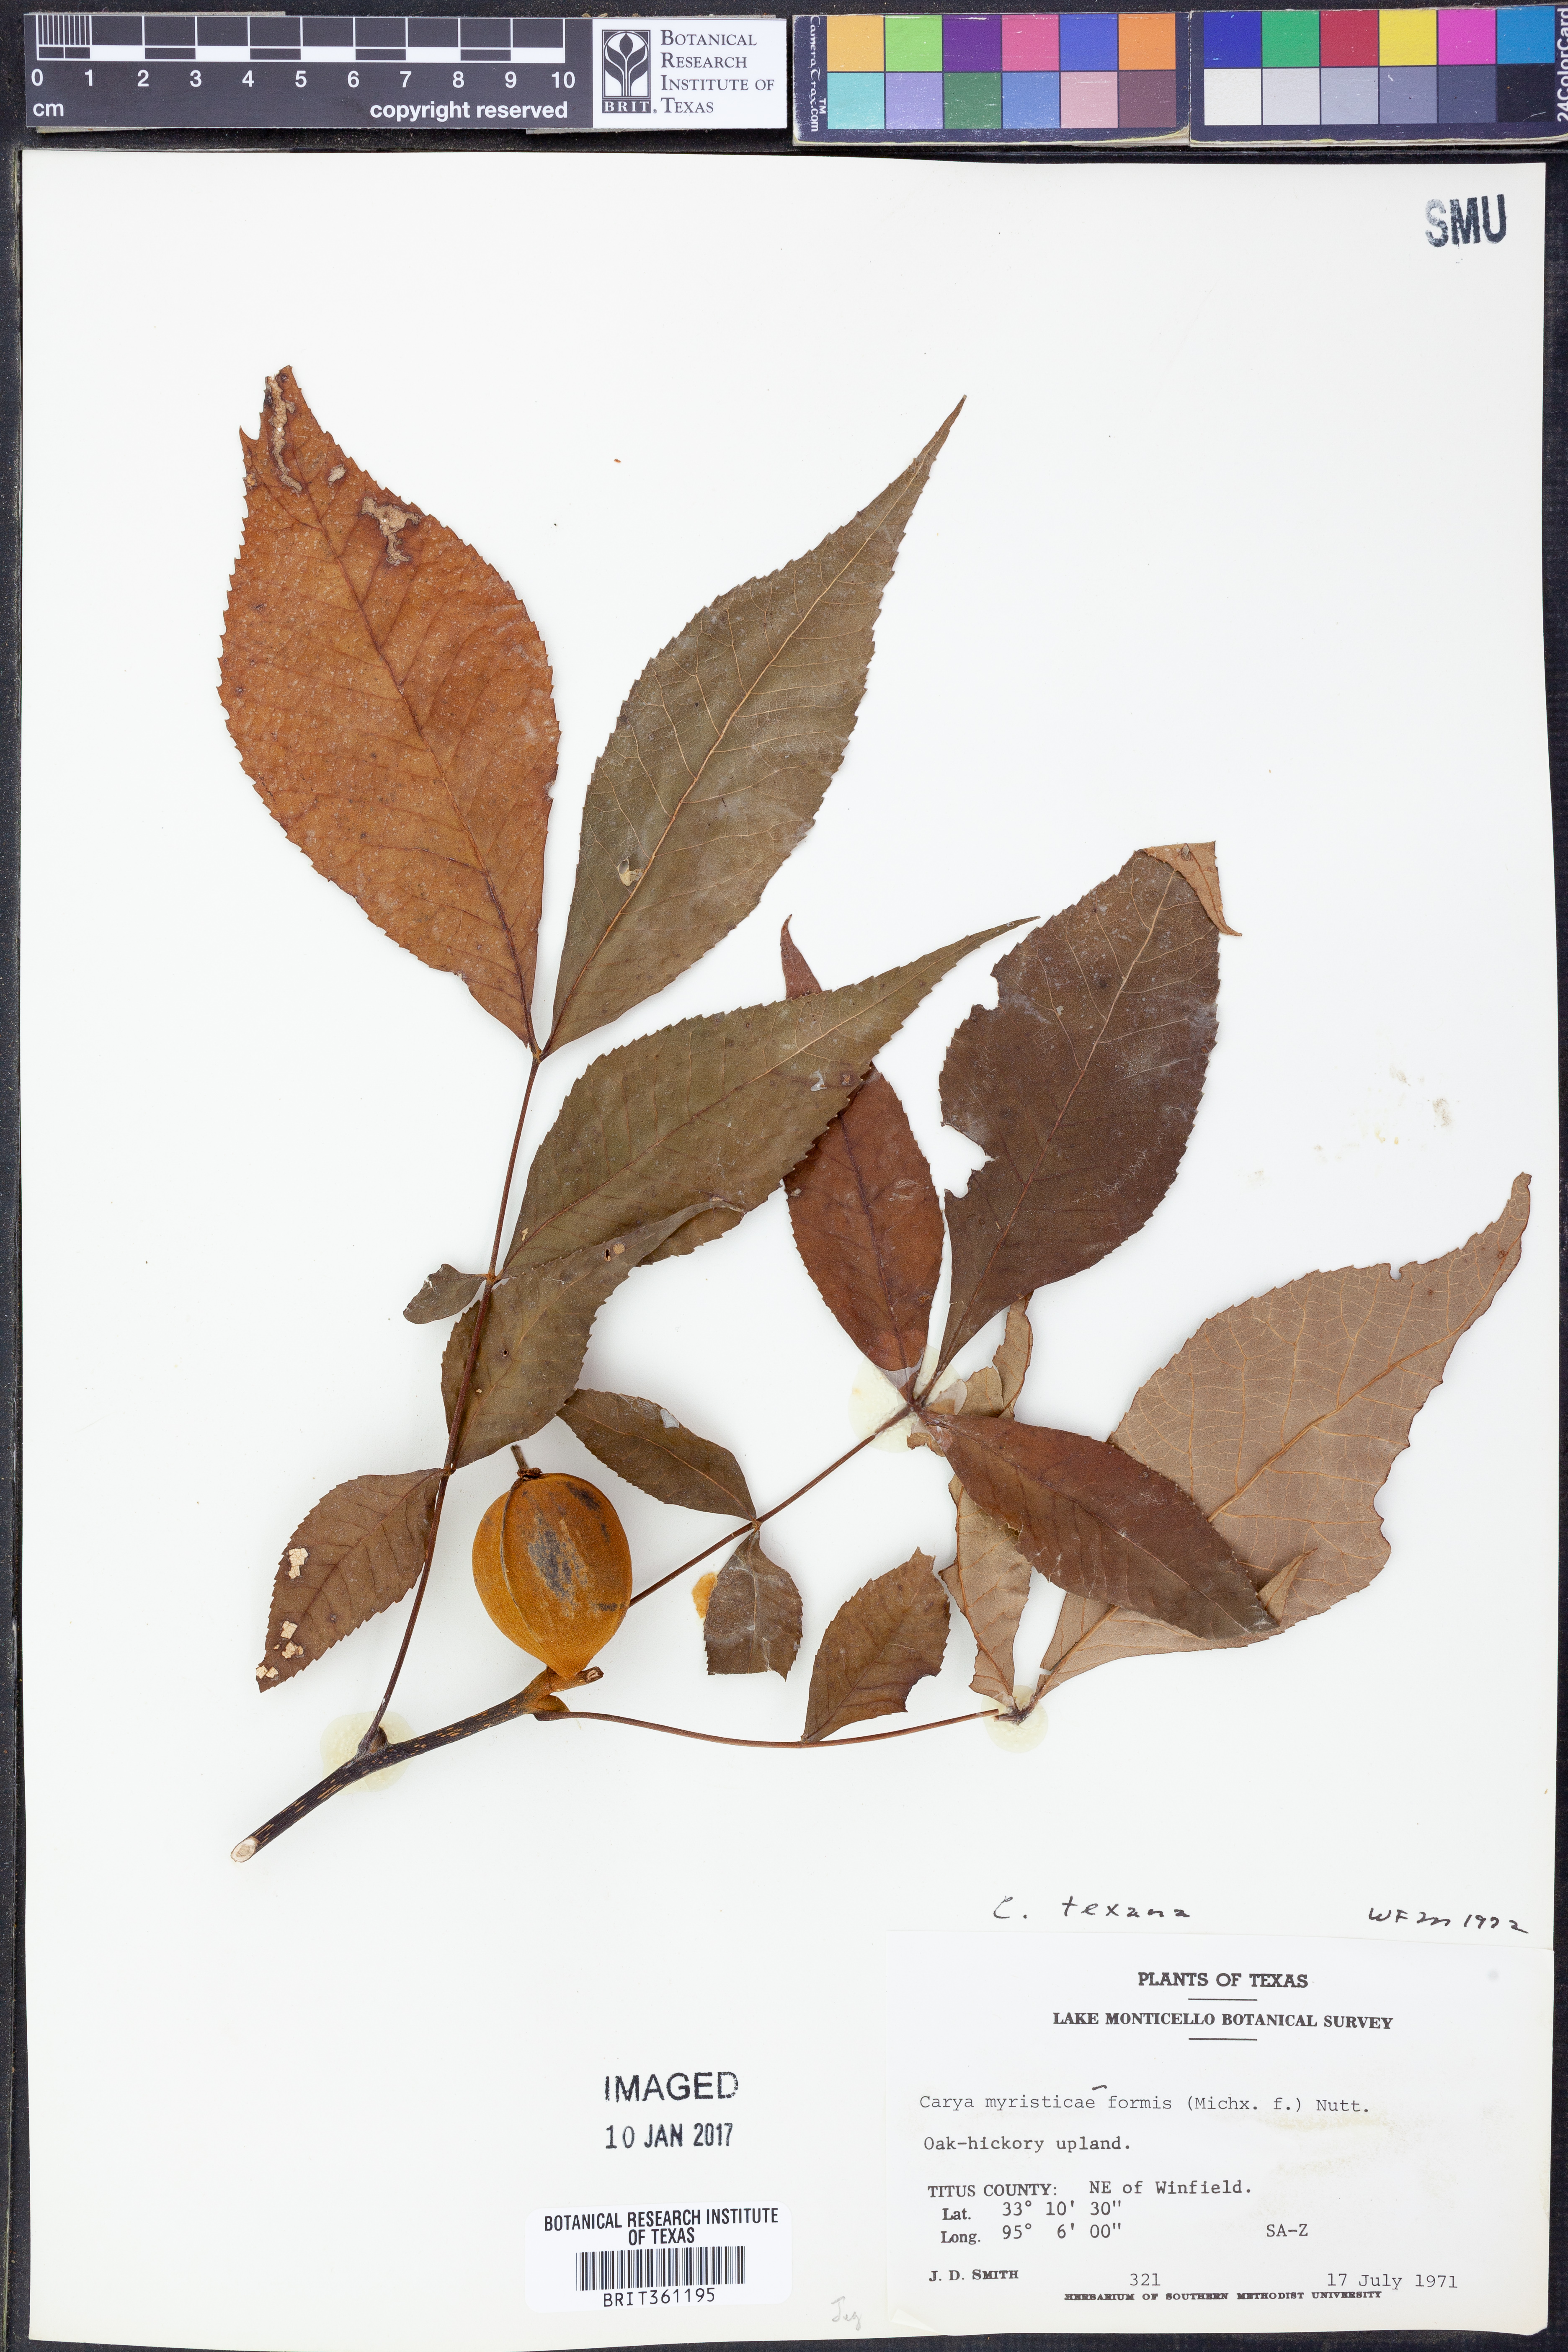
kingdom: Plantae
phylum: Tracheophyta
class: Magnoliopsida
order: Fagales
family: Juglandaceae
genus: Carya
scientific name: Carya texana
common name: Black hickory
